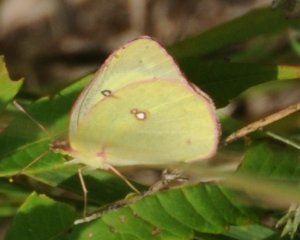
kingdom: Animalia
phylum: Arthropoda
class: Insecta
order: Lepidoptera
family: Pieridae
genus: Colias
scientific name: Colias philodice
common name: Clouded Sulphur
